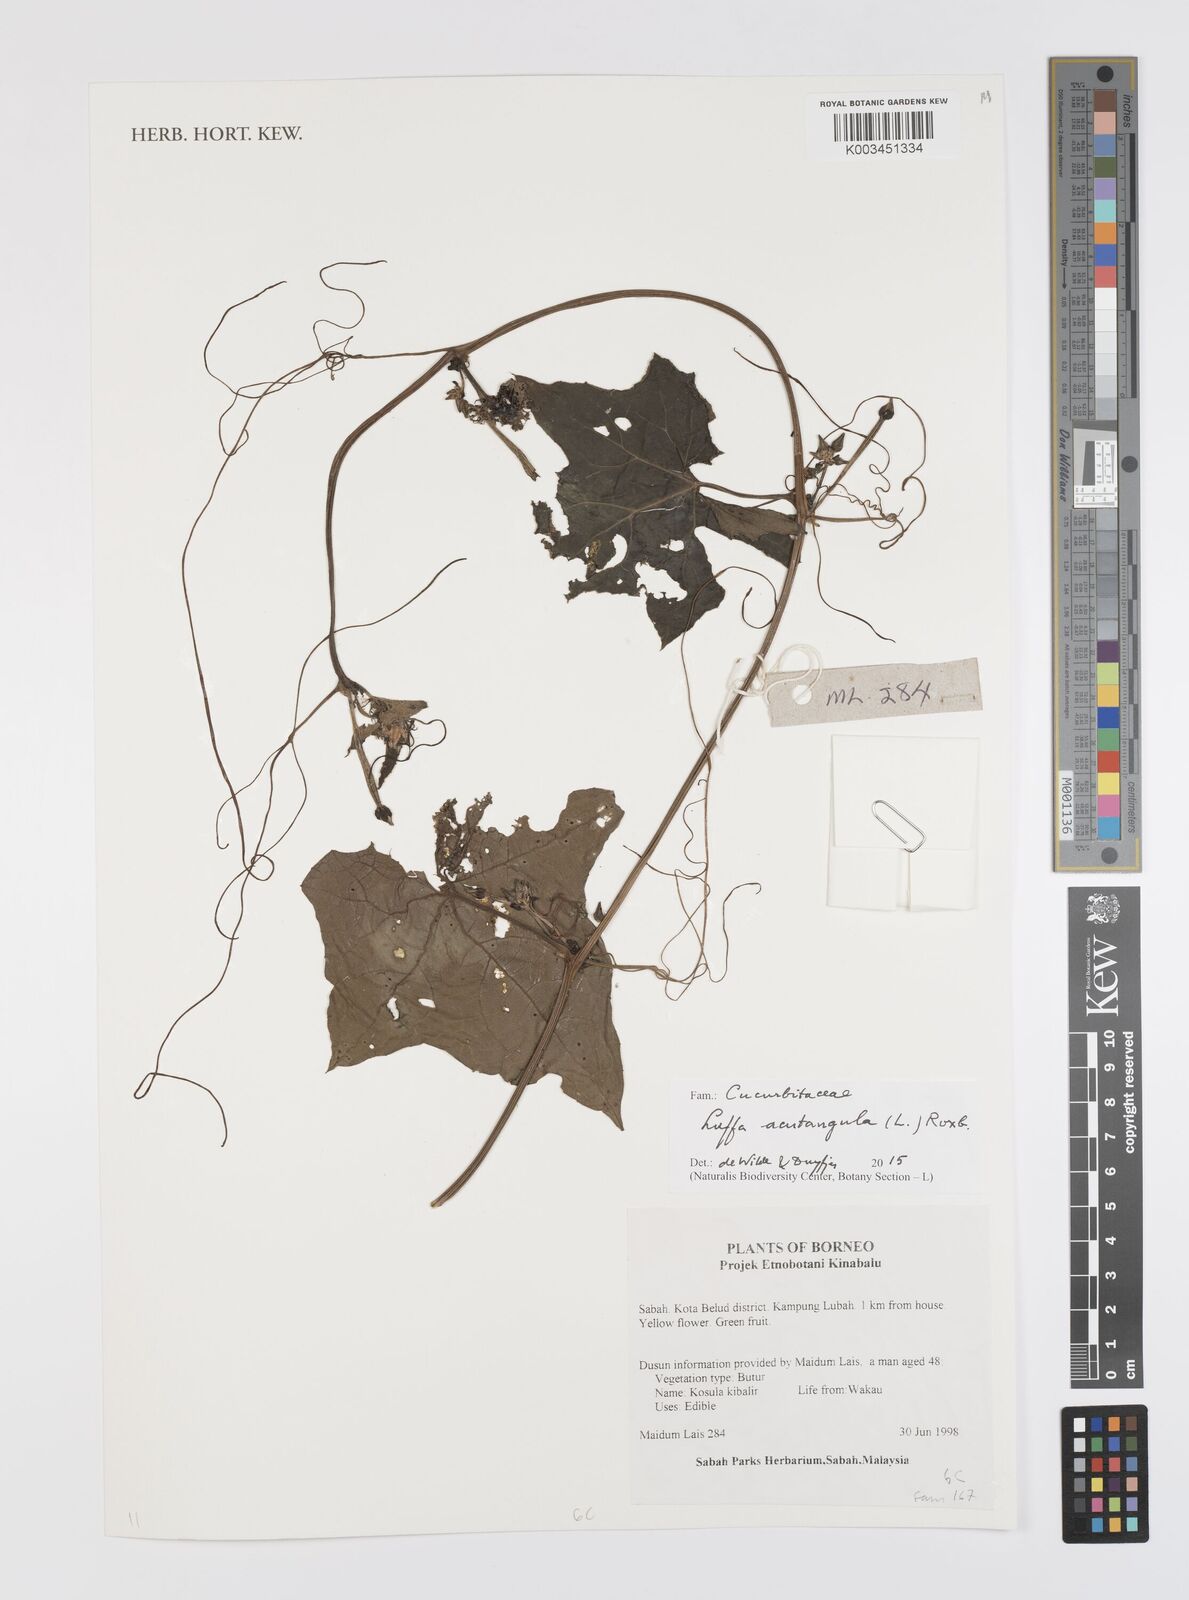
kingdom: Plantae
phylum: Tracheophyta
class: Magnoliopsida
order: Cucurbitales
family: Cucurbitaceae
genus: Luffa
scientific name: Luffa acutangula
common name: Sinkwa towelsponge
